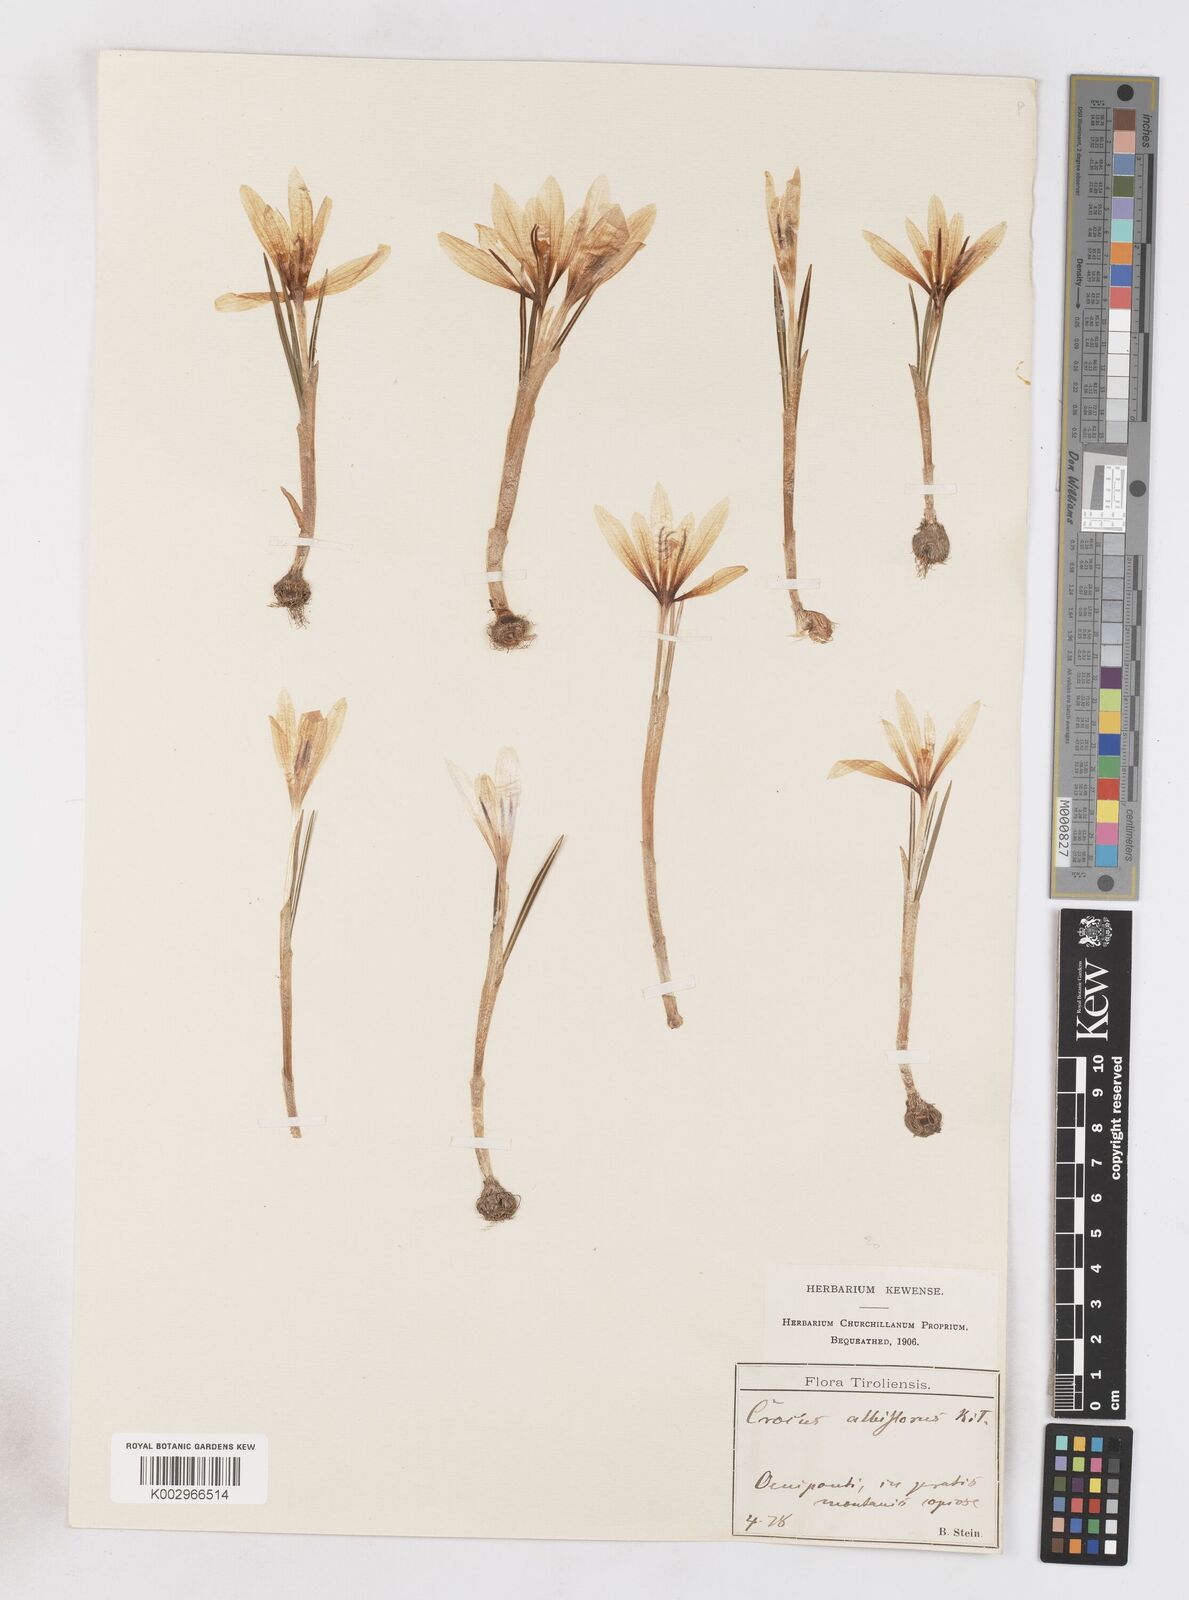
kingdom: Plantae
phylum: Tracheophyta
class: Liliopsida
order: Asparagales
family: Iridaceae
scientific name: Iridaceae
